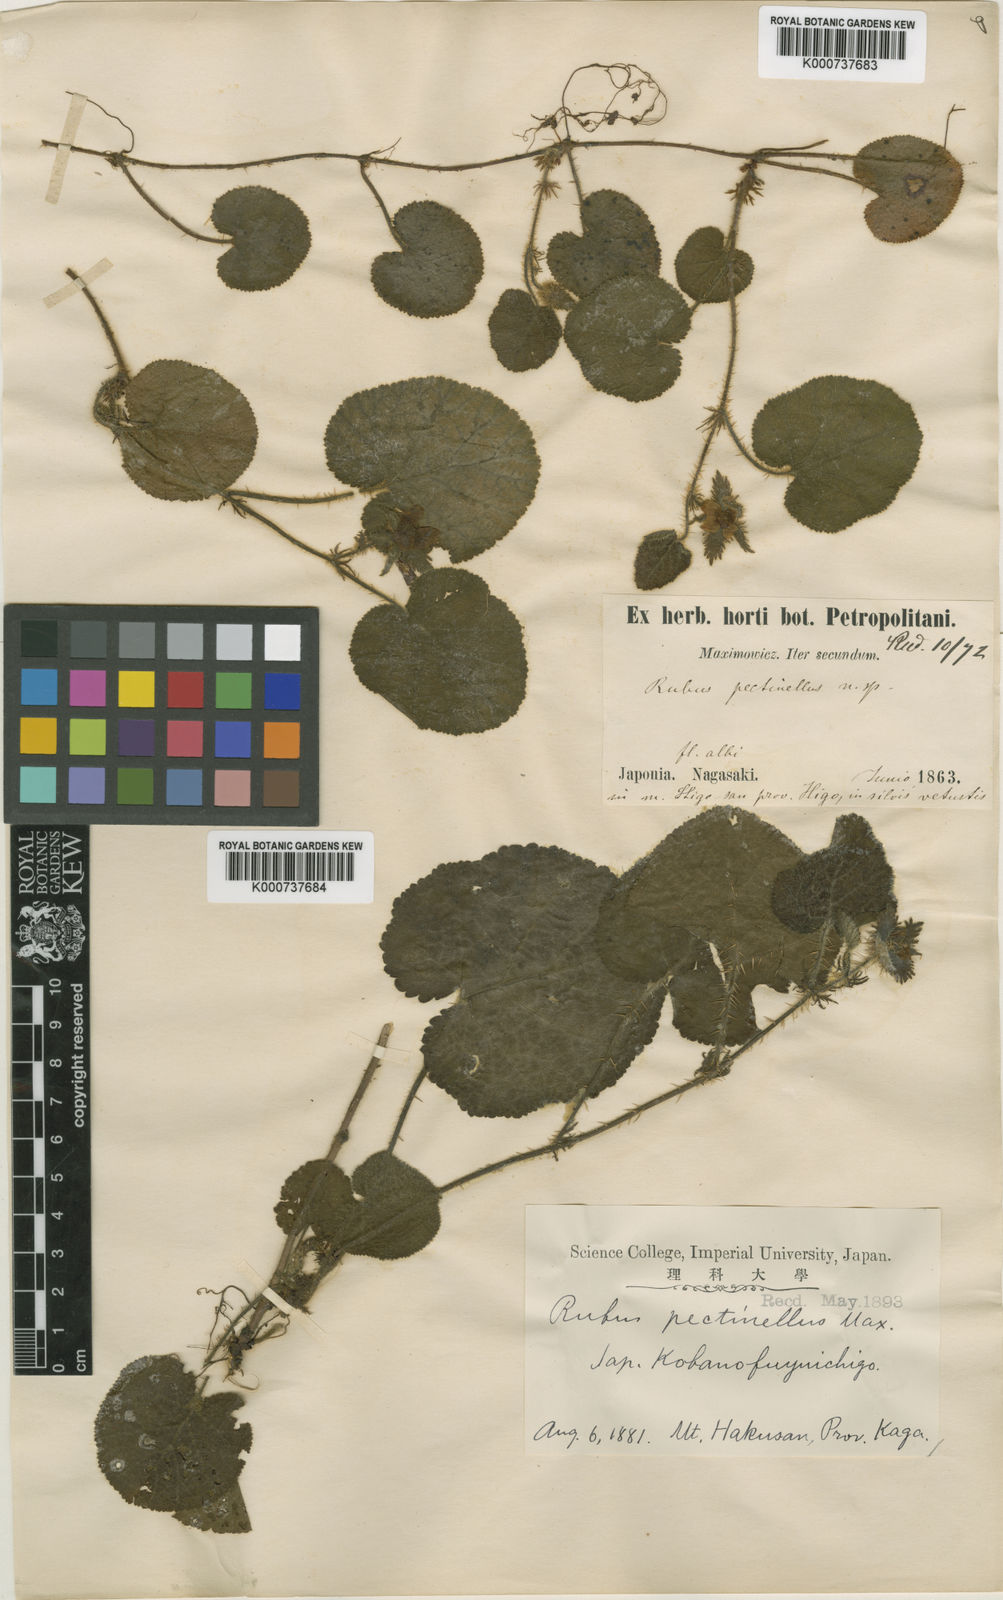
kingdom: Plantae
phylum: Tracheophyta
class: Magnoliopsida
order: Rosales
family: Rosaceae
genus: Rubus
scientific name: Rubus pectinellus
